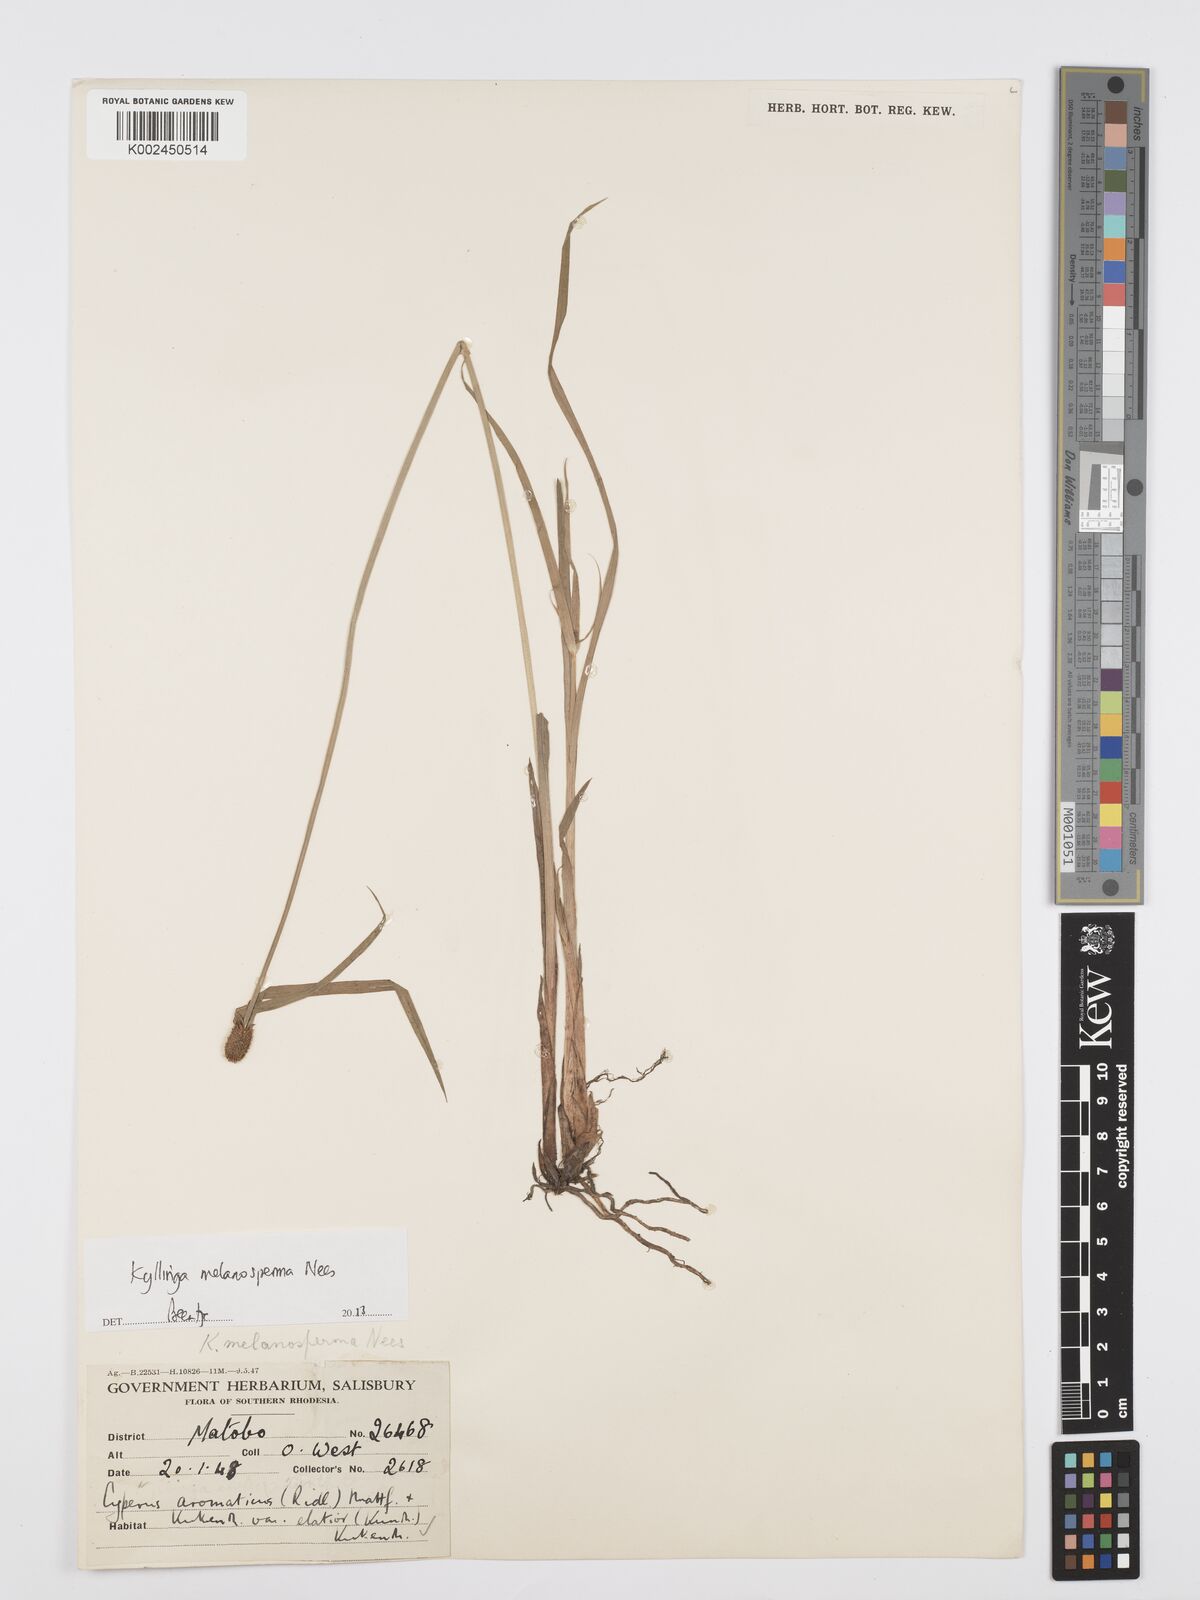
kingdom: Plantae
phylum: Tracheophyta
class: Liliopsida
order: Poales
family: Cyperaceae
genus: Cyperus
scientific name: Cyperus melanospermus
